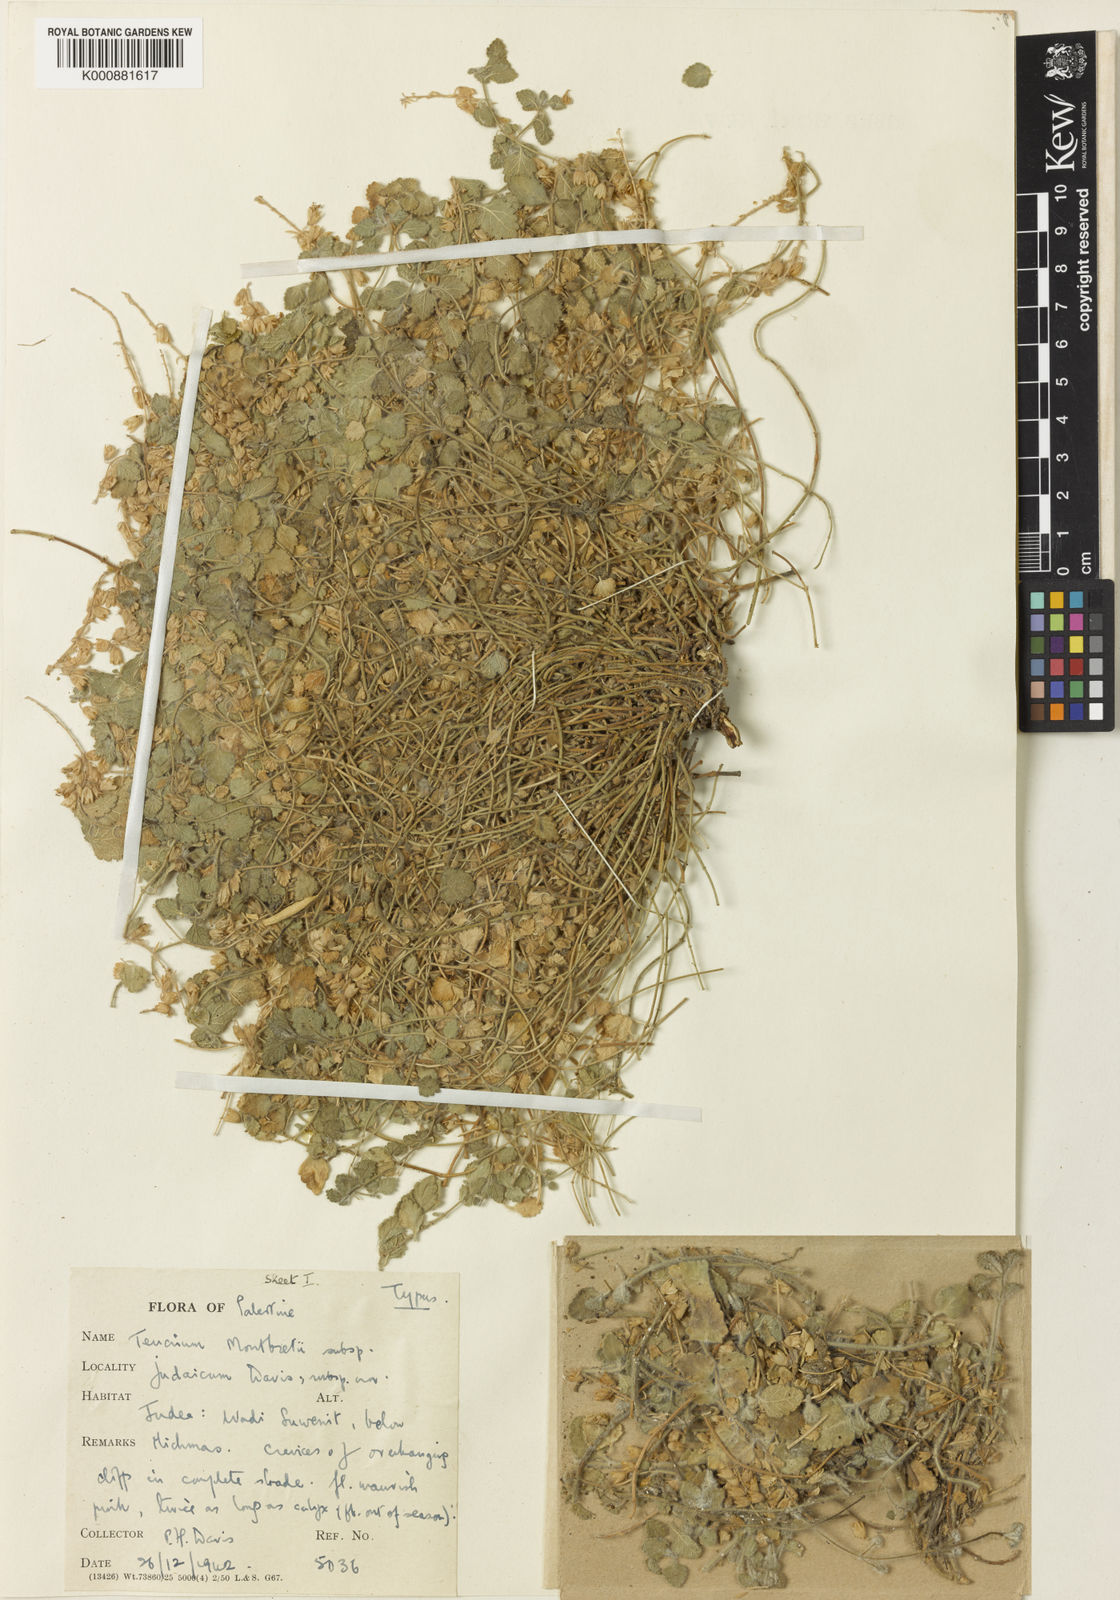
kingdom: Plantae
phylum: Tracheophyta
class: Magnoliopsida
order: Lamiales
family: Lamiaceae
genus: Teucrium
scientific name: Teucrium montbretii
